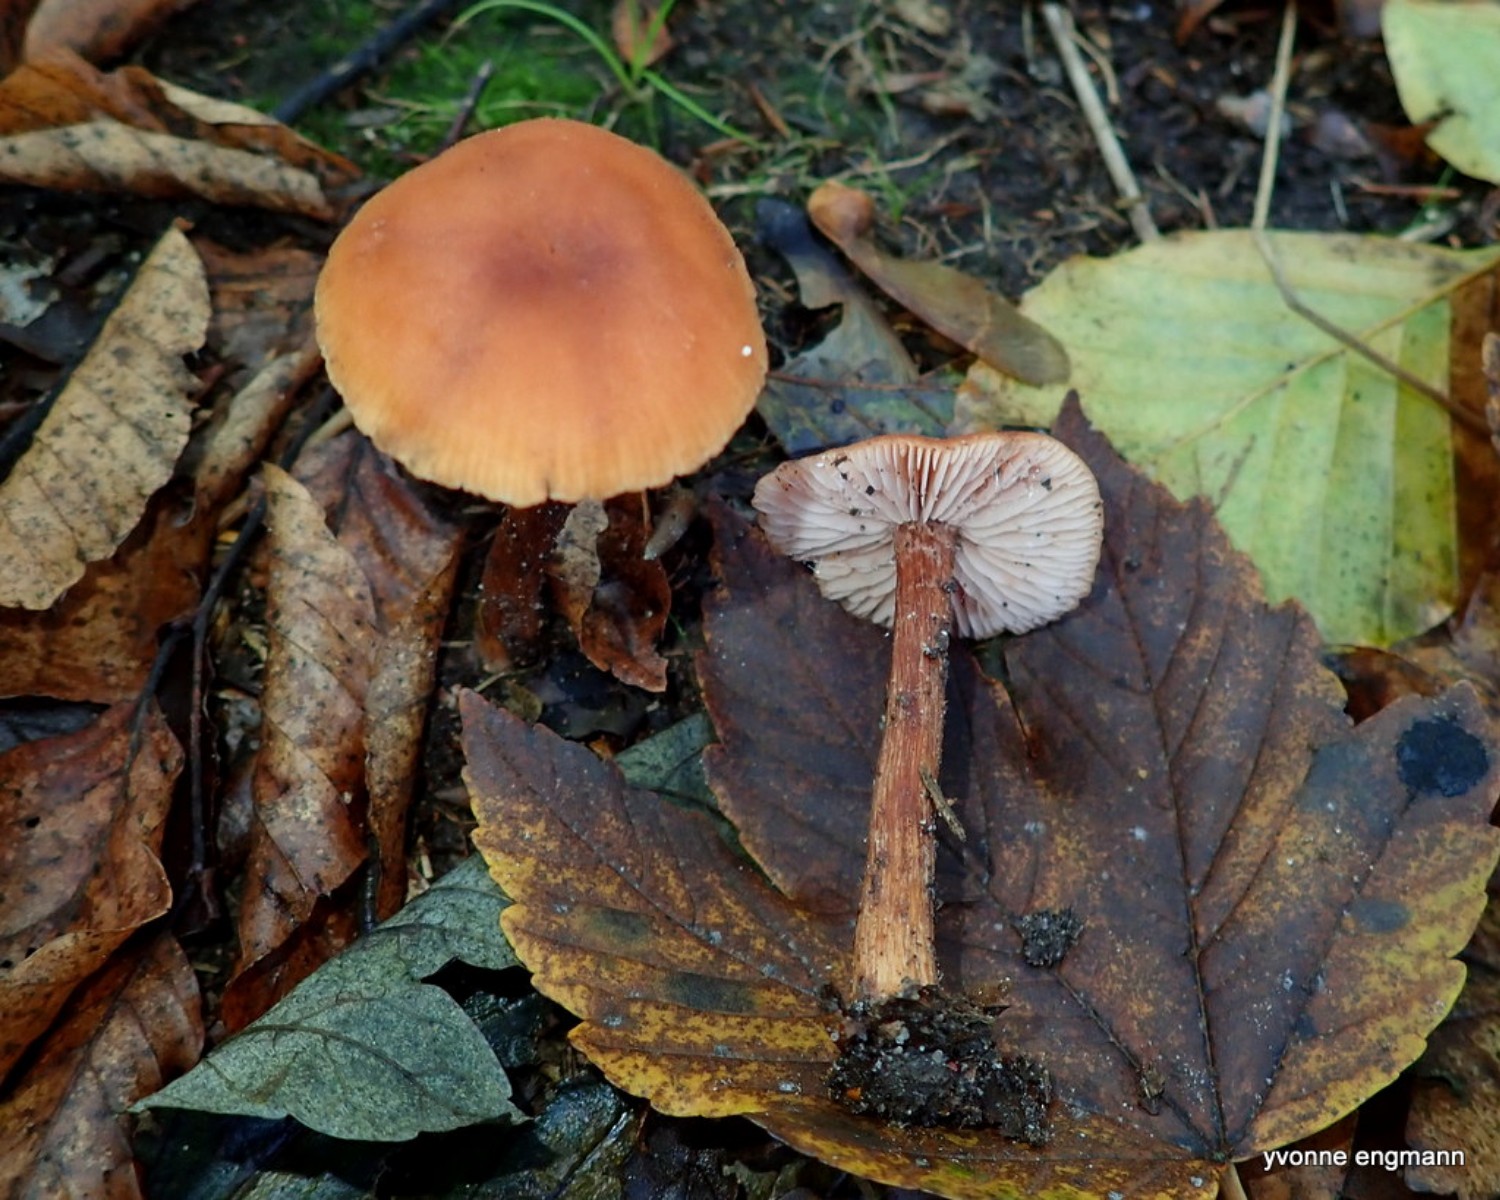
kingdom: Fungi
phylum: Basidiomycota
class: Agaricomycetes
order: Agaricales
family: Hydnangiaceae
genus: Laccaria
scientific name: Laccaria proxima
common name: stor ametysthat
